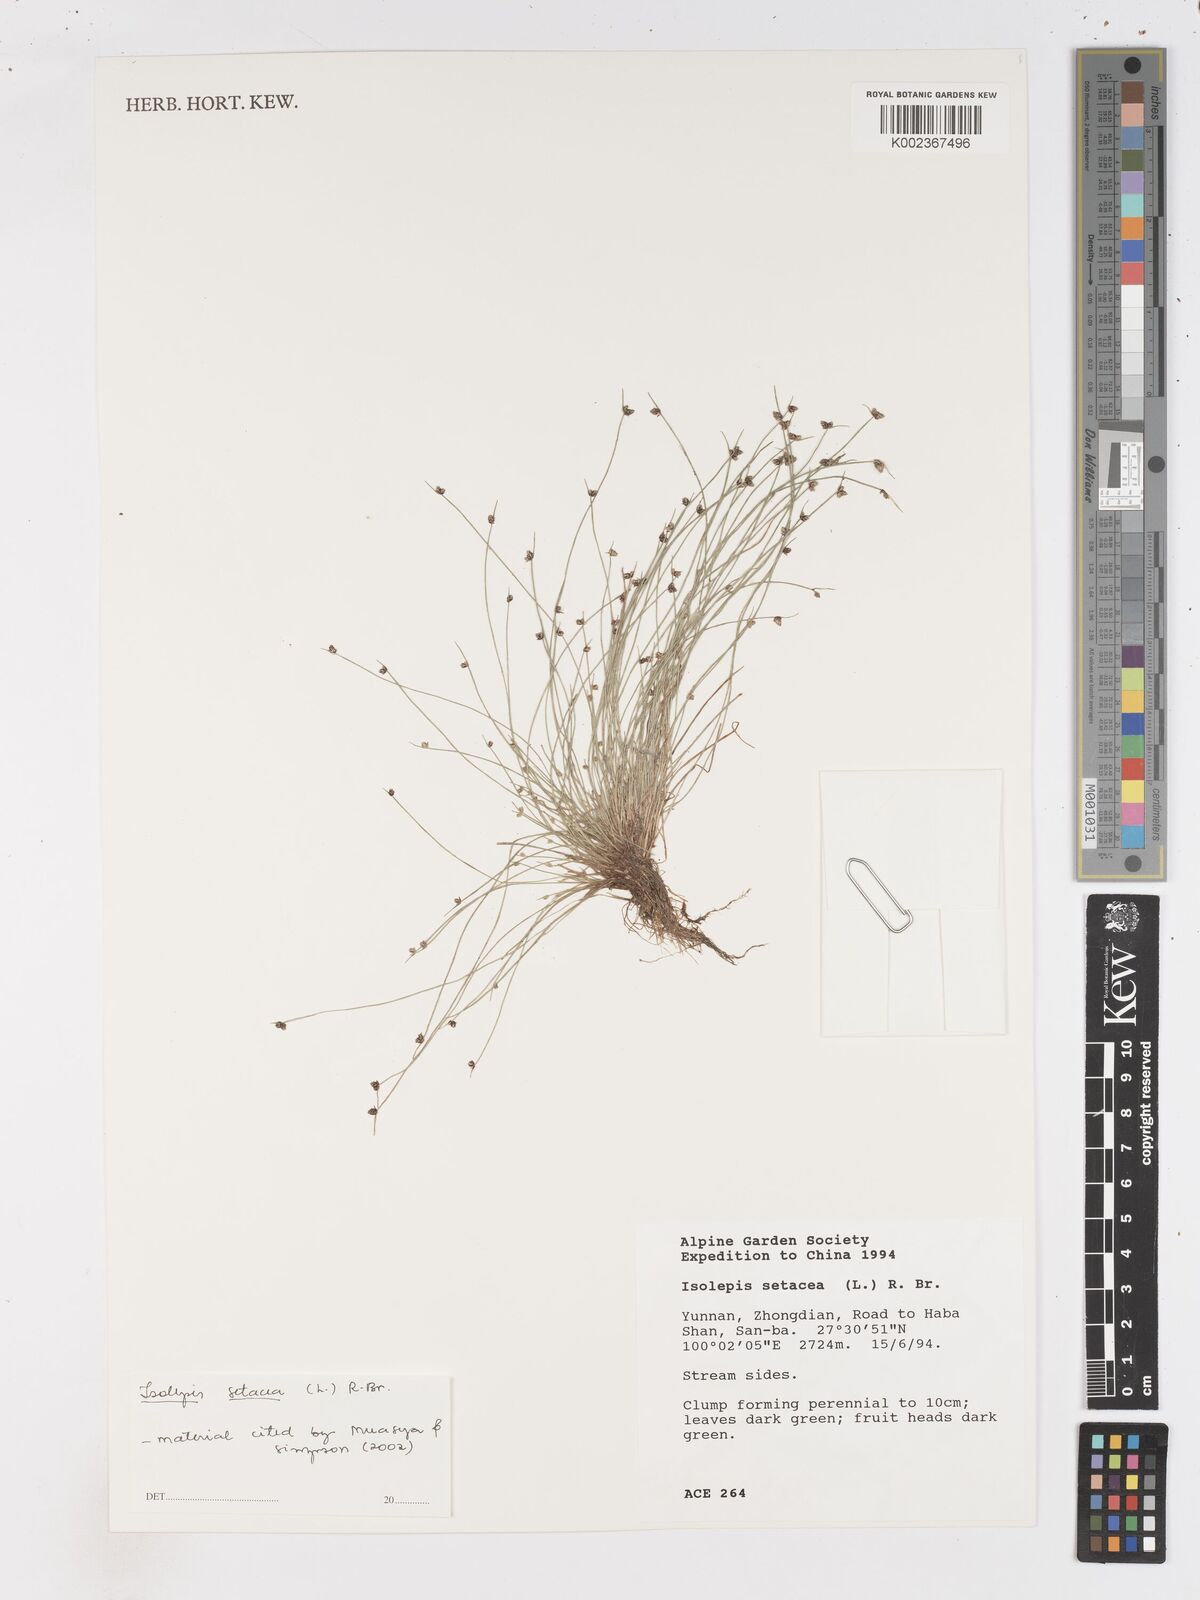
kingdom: Plantae
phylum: Tracheophyta
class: Liliopsida
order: Poales
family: Cyperaceae
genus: Isolepis
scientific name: Isolepis setacea
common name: Bristle club-rush
